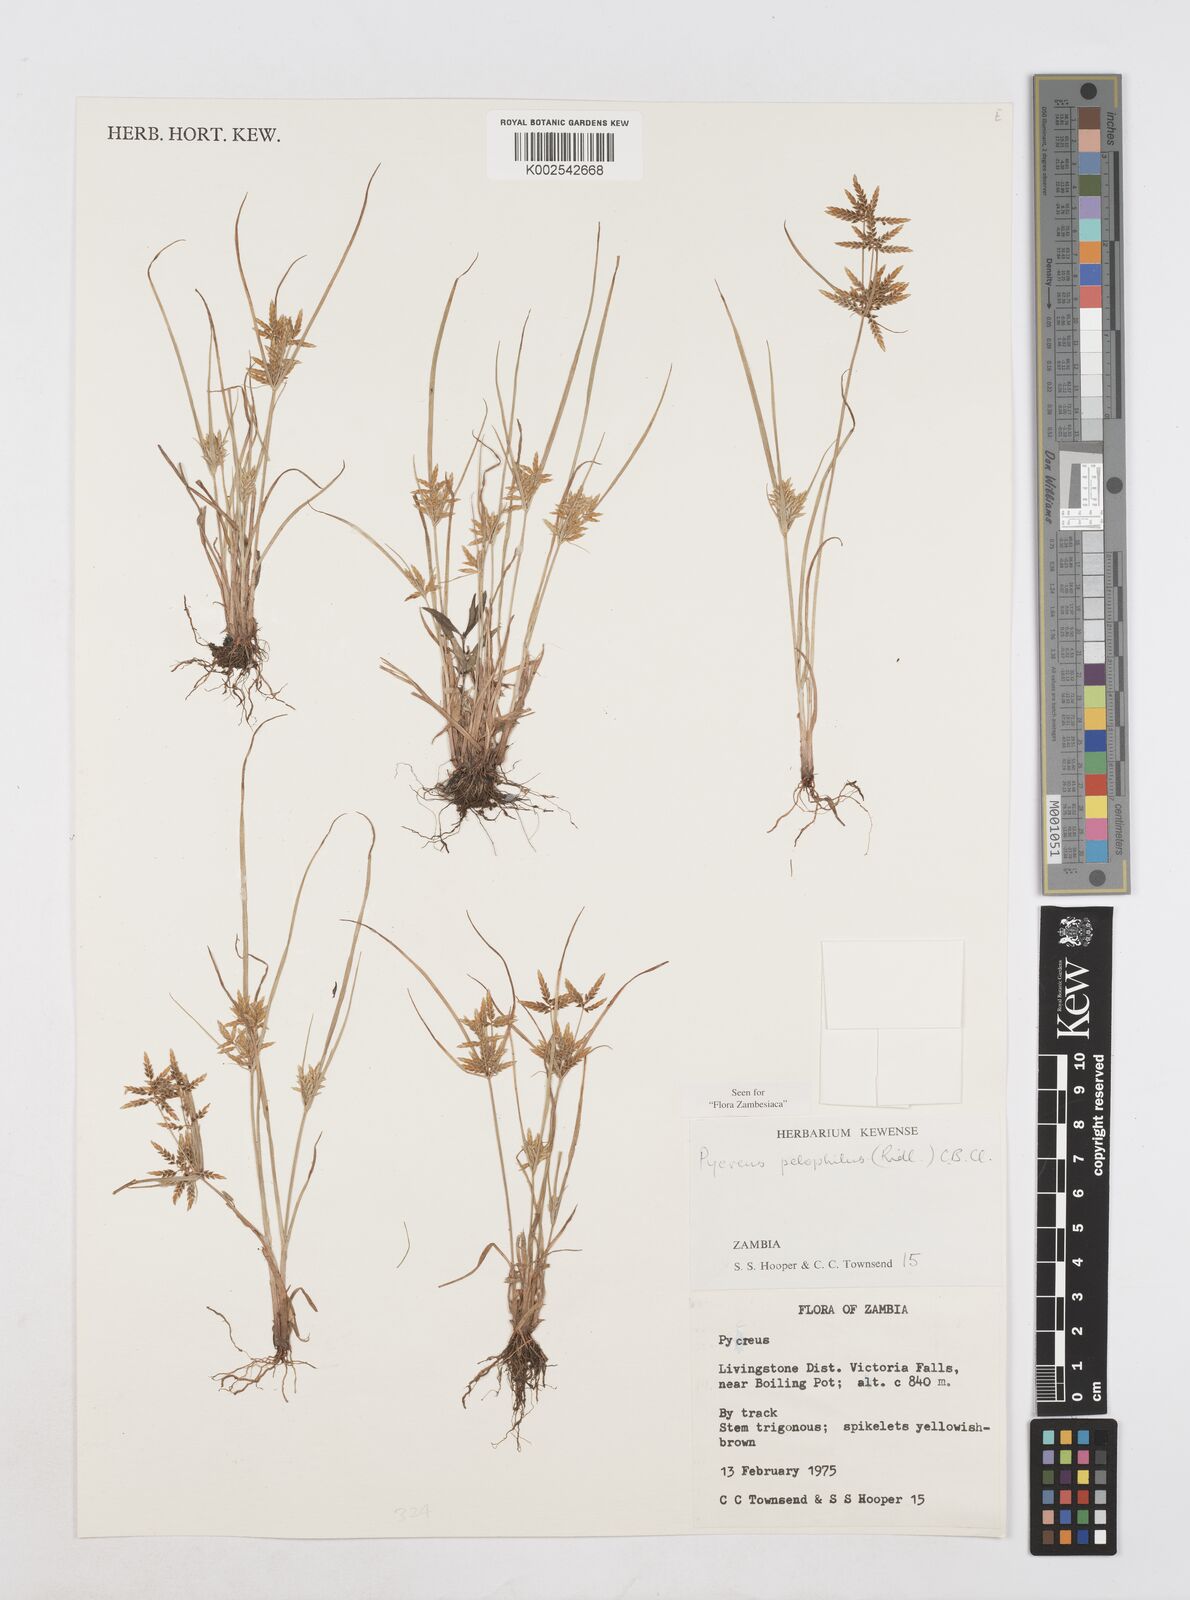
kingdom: Plantae
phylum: Tracheophyta
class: Liliopsida
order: Poales
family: Cyperaceae
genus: Cyperus
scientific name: Cyperus pelophilus
